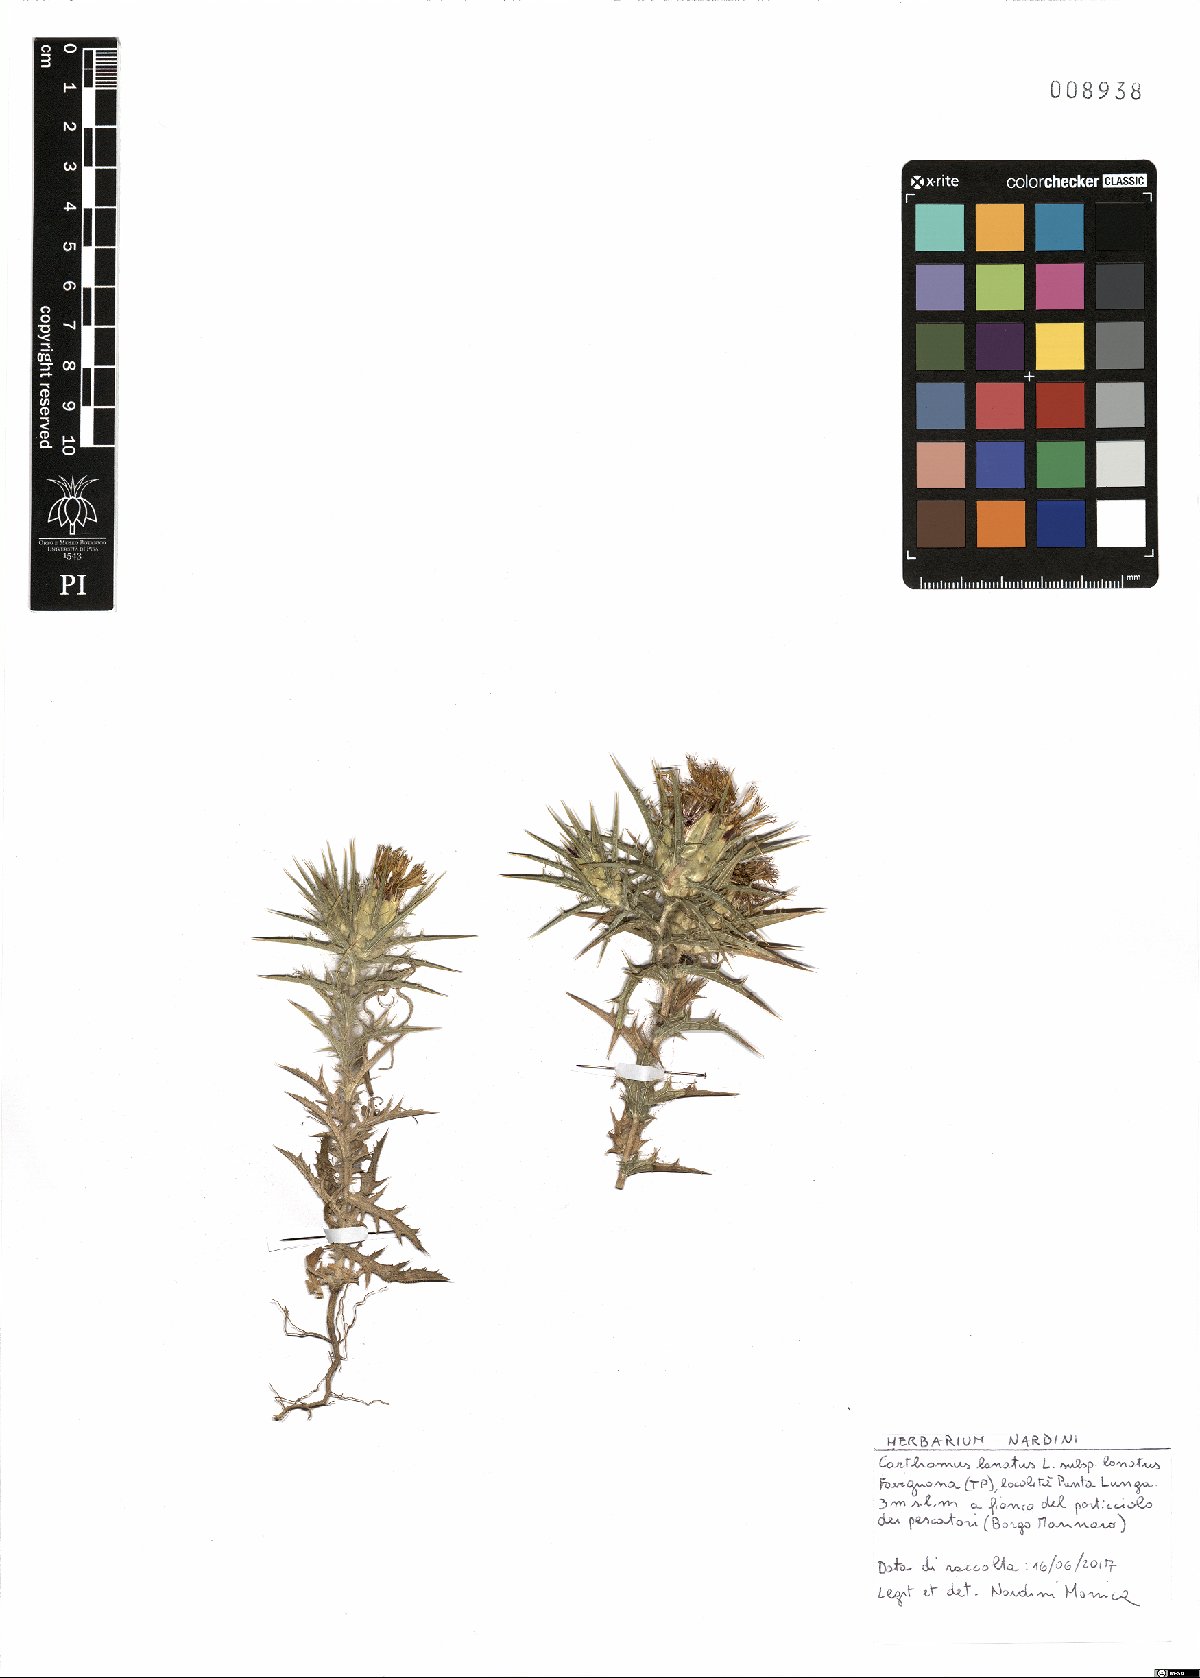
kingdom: Plantae
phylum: Tracheophyta
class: Magnoliopsida
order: Asterales
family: Asteraceae
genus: Carthamus
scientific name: Carthamus lanatus
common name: Downy safflower
